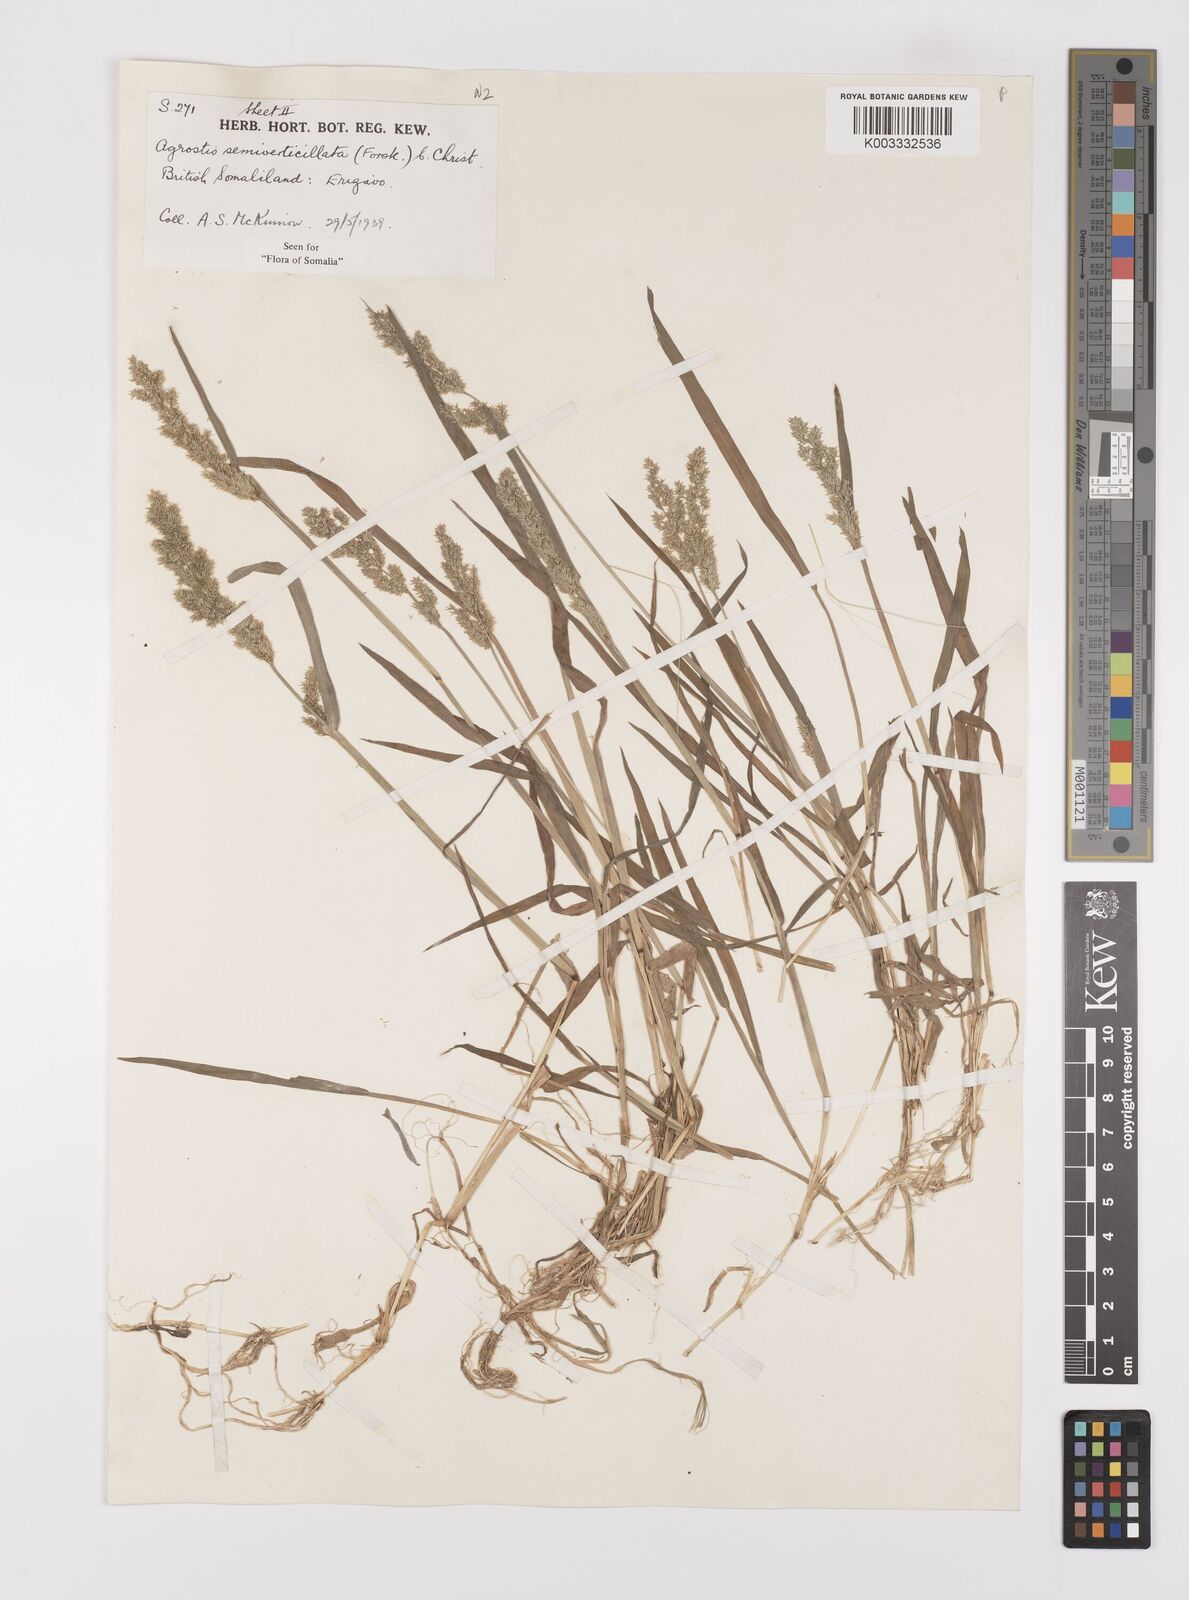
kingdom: Plantae
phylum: Tracheophyta
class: Liliopsida
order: Poales
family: Poaceae
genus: Polypogon
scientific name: Polypogon viridis
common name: Water bent
